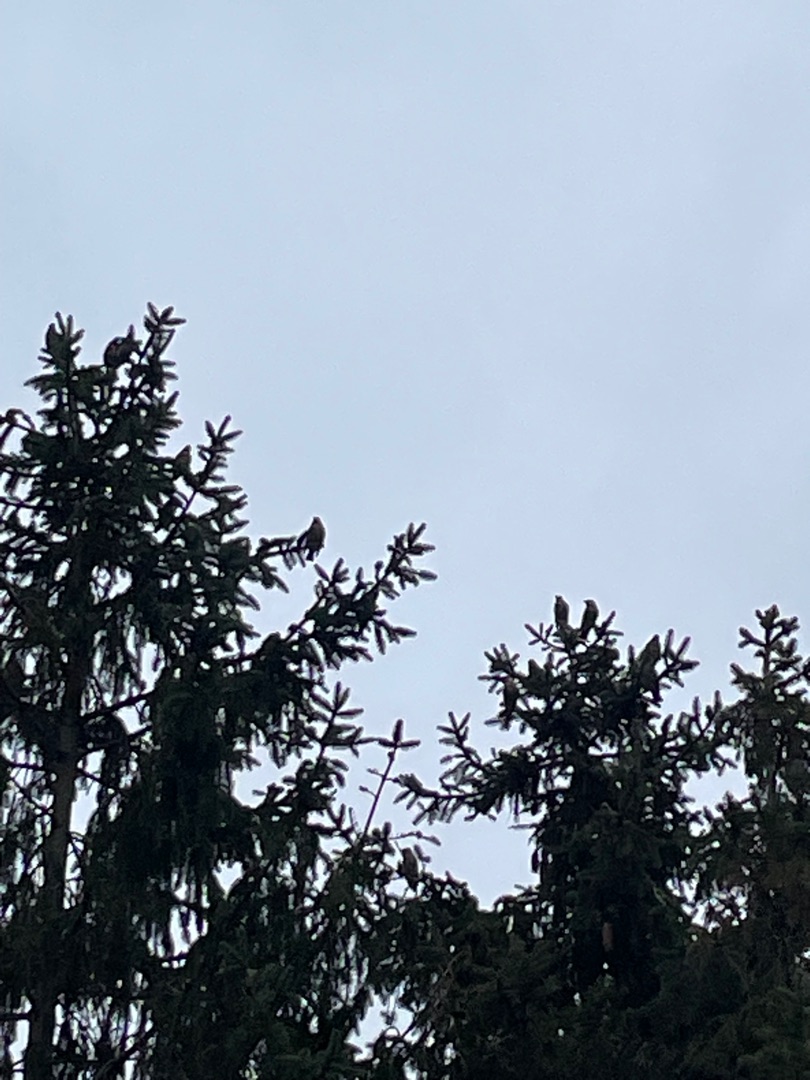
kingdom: Animalia
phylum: Chordata
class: Aves
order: Passeriformes
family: Bombycillidae
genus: Bombycilla
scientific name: Bombycilla garrulus
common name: Silkehale
